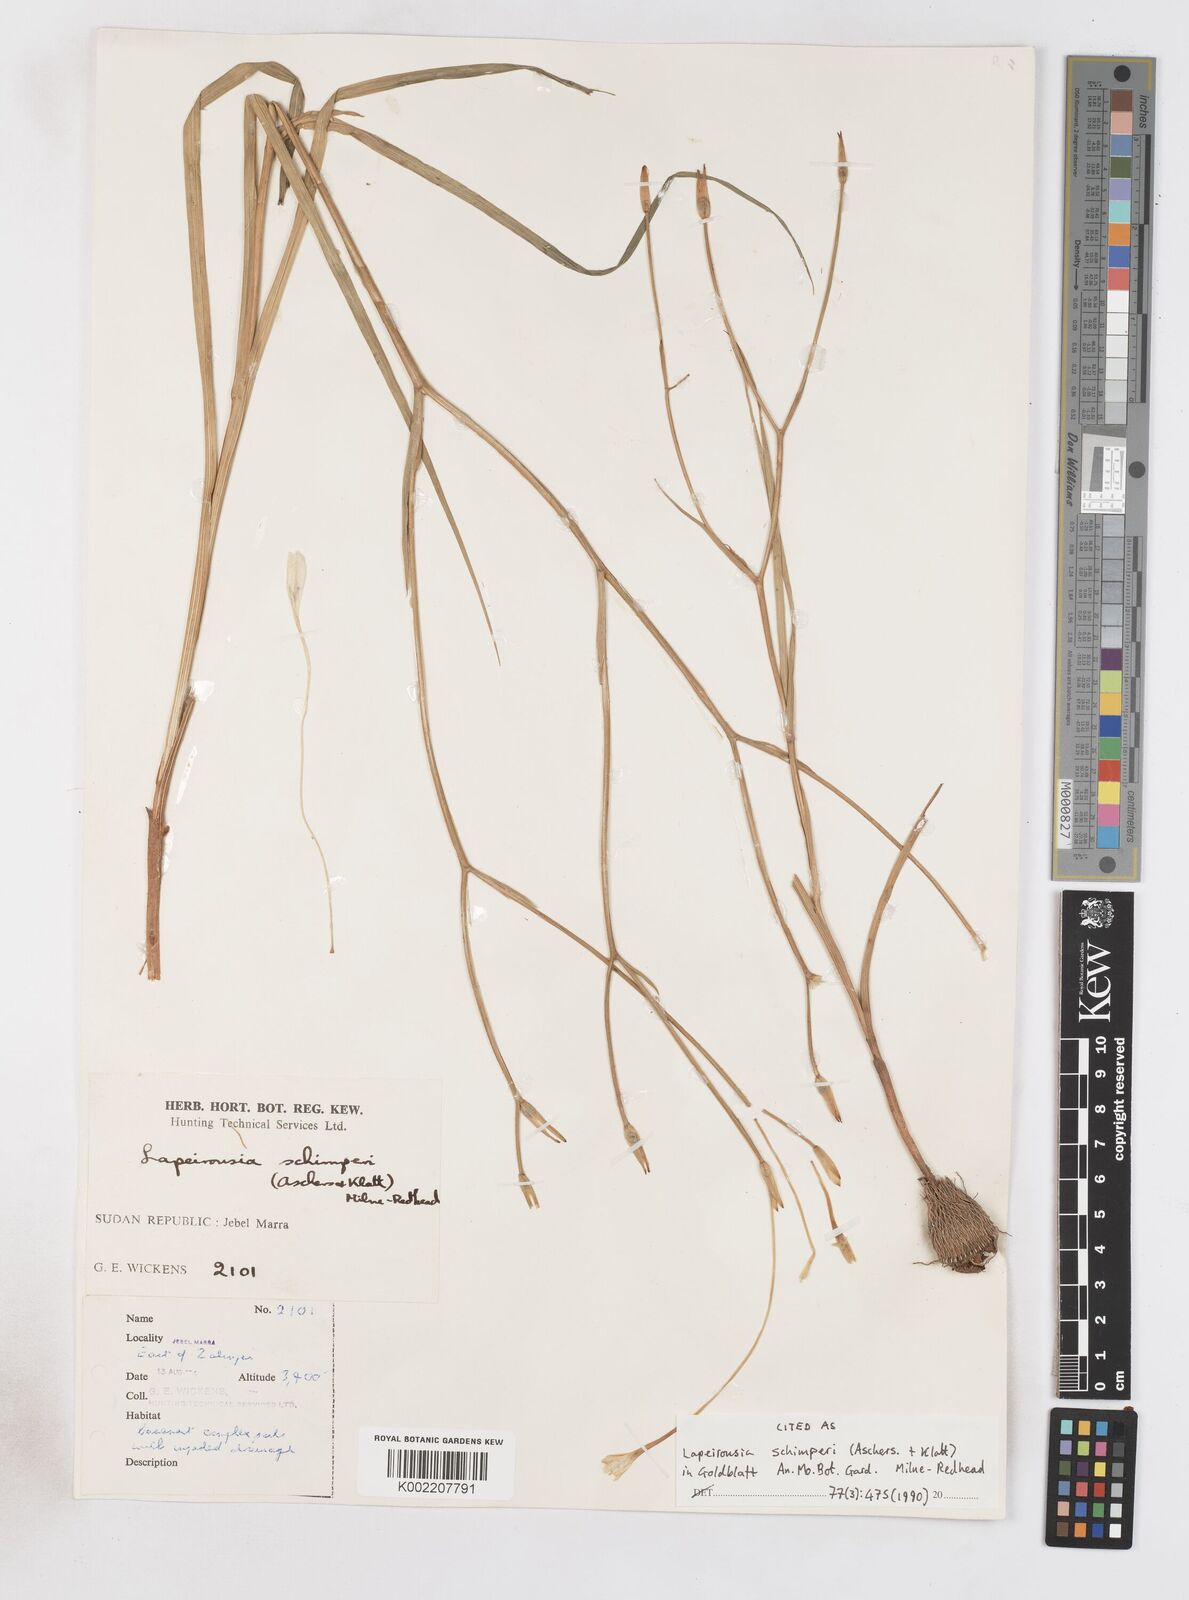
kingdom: Plantae
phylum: Tracheophyta
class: Liliopsida
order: Asparagales
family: Iridaceae
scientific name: Iridaceae
